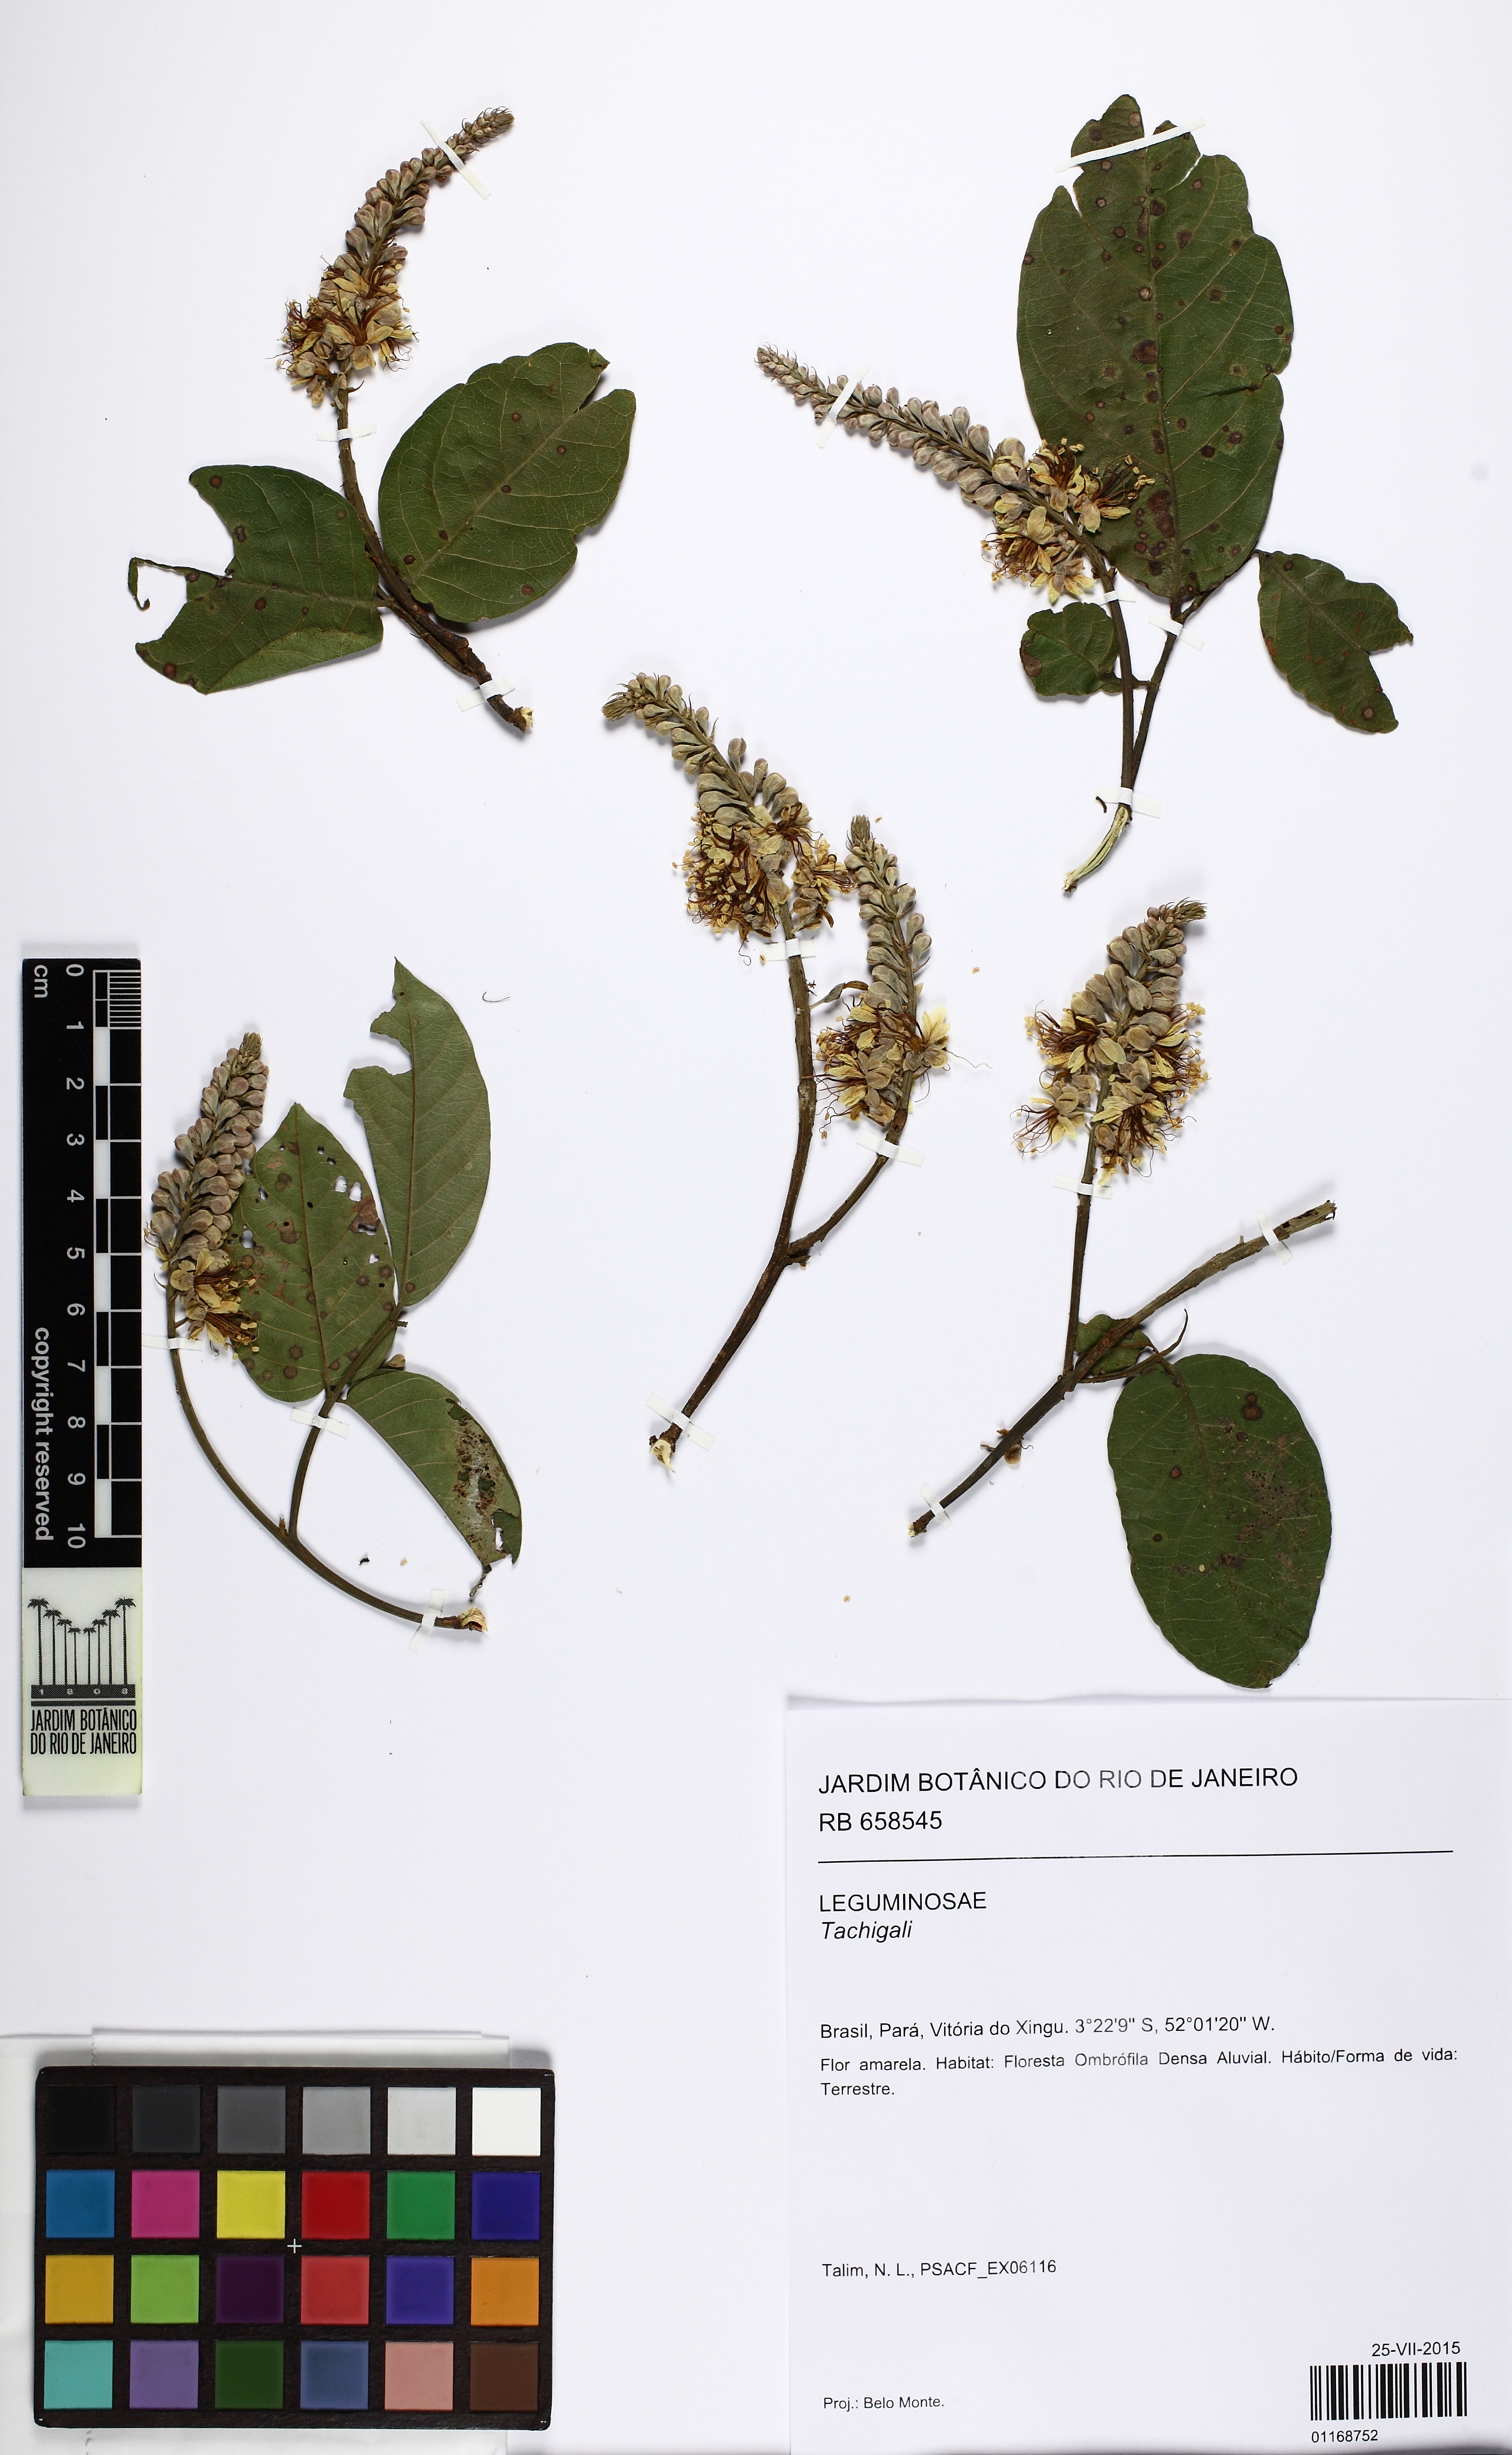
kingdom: Plantae
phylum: Tracheophyta
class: Magnoliopsida
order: Fabales
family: Fabaceae
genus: Tachigali
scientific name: Tachigali paniculata
